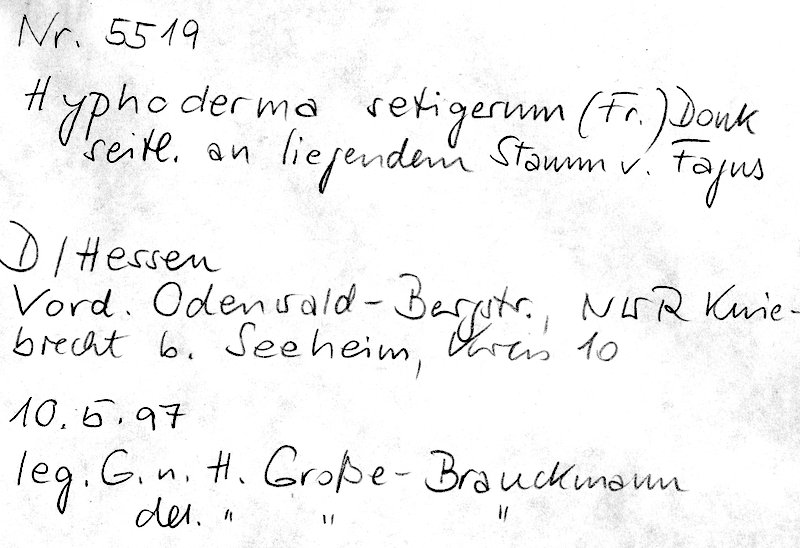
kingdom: Fungi
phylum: Basidiomycota
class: Agaricomycetes
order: Polyporales
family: Hyphodermataceae
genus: Hyphoderma
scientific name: Hyphoderma setigerum
